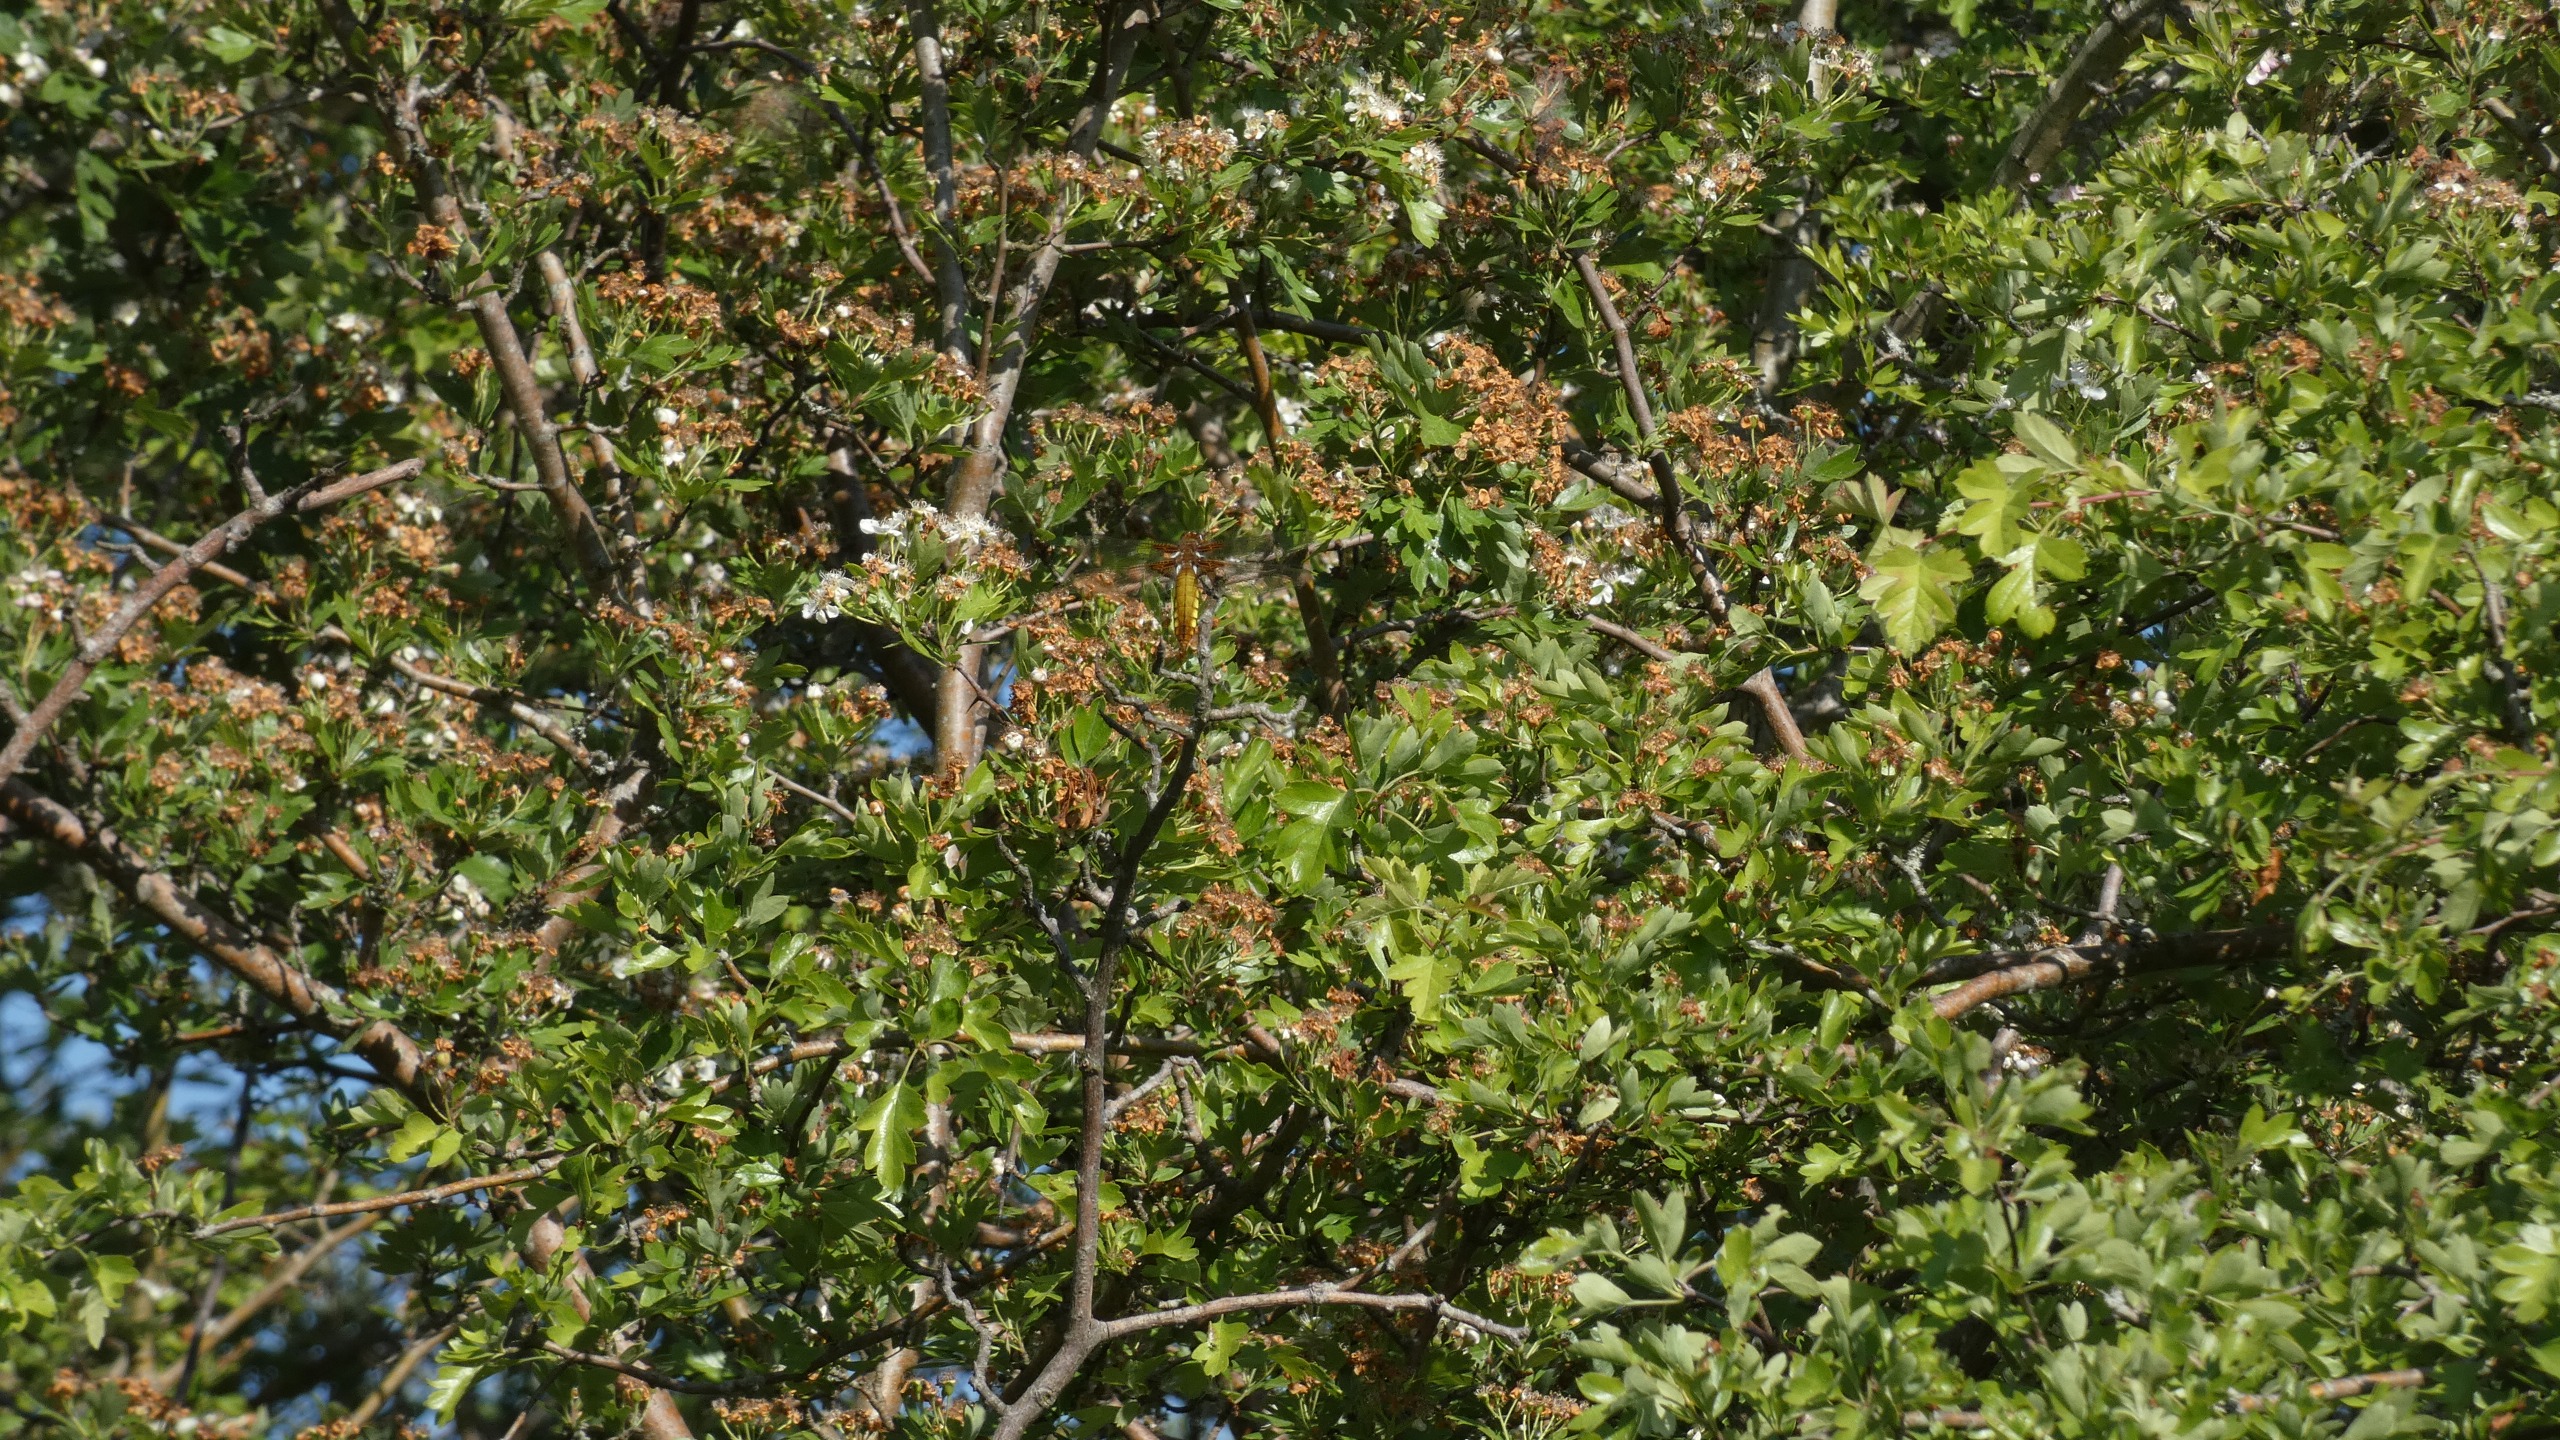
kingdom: Animalia
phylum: Arthropoda
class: Insecta
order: Odonata
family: Libellulidae
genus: Libellula
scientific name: Libellula depressa
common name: Blå libel
